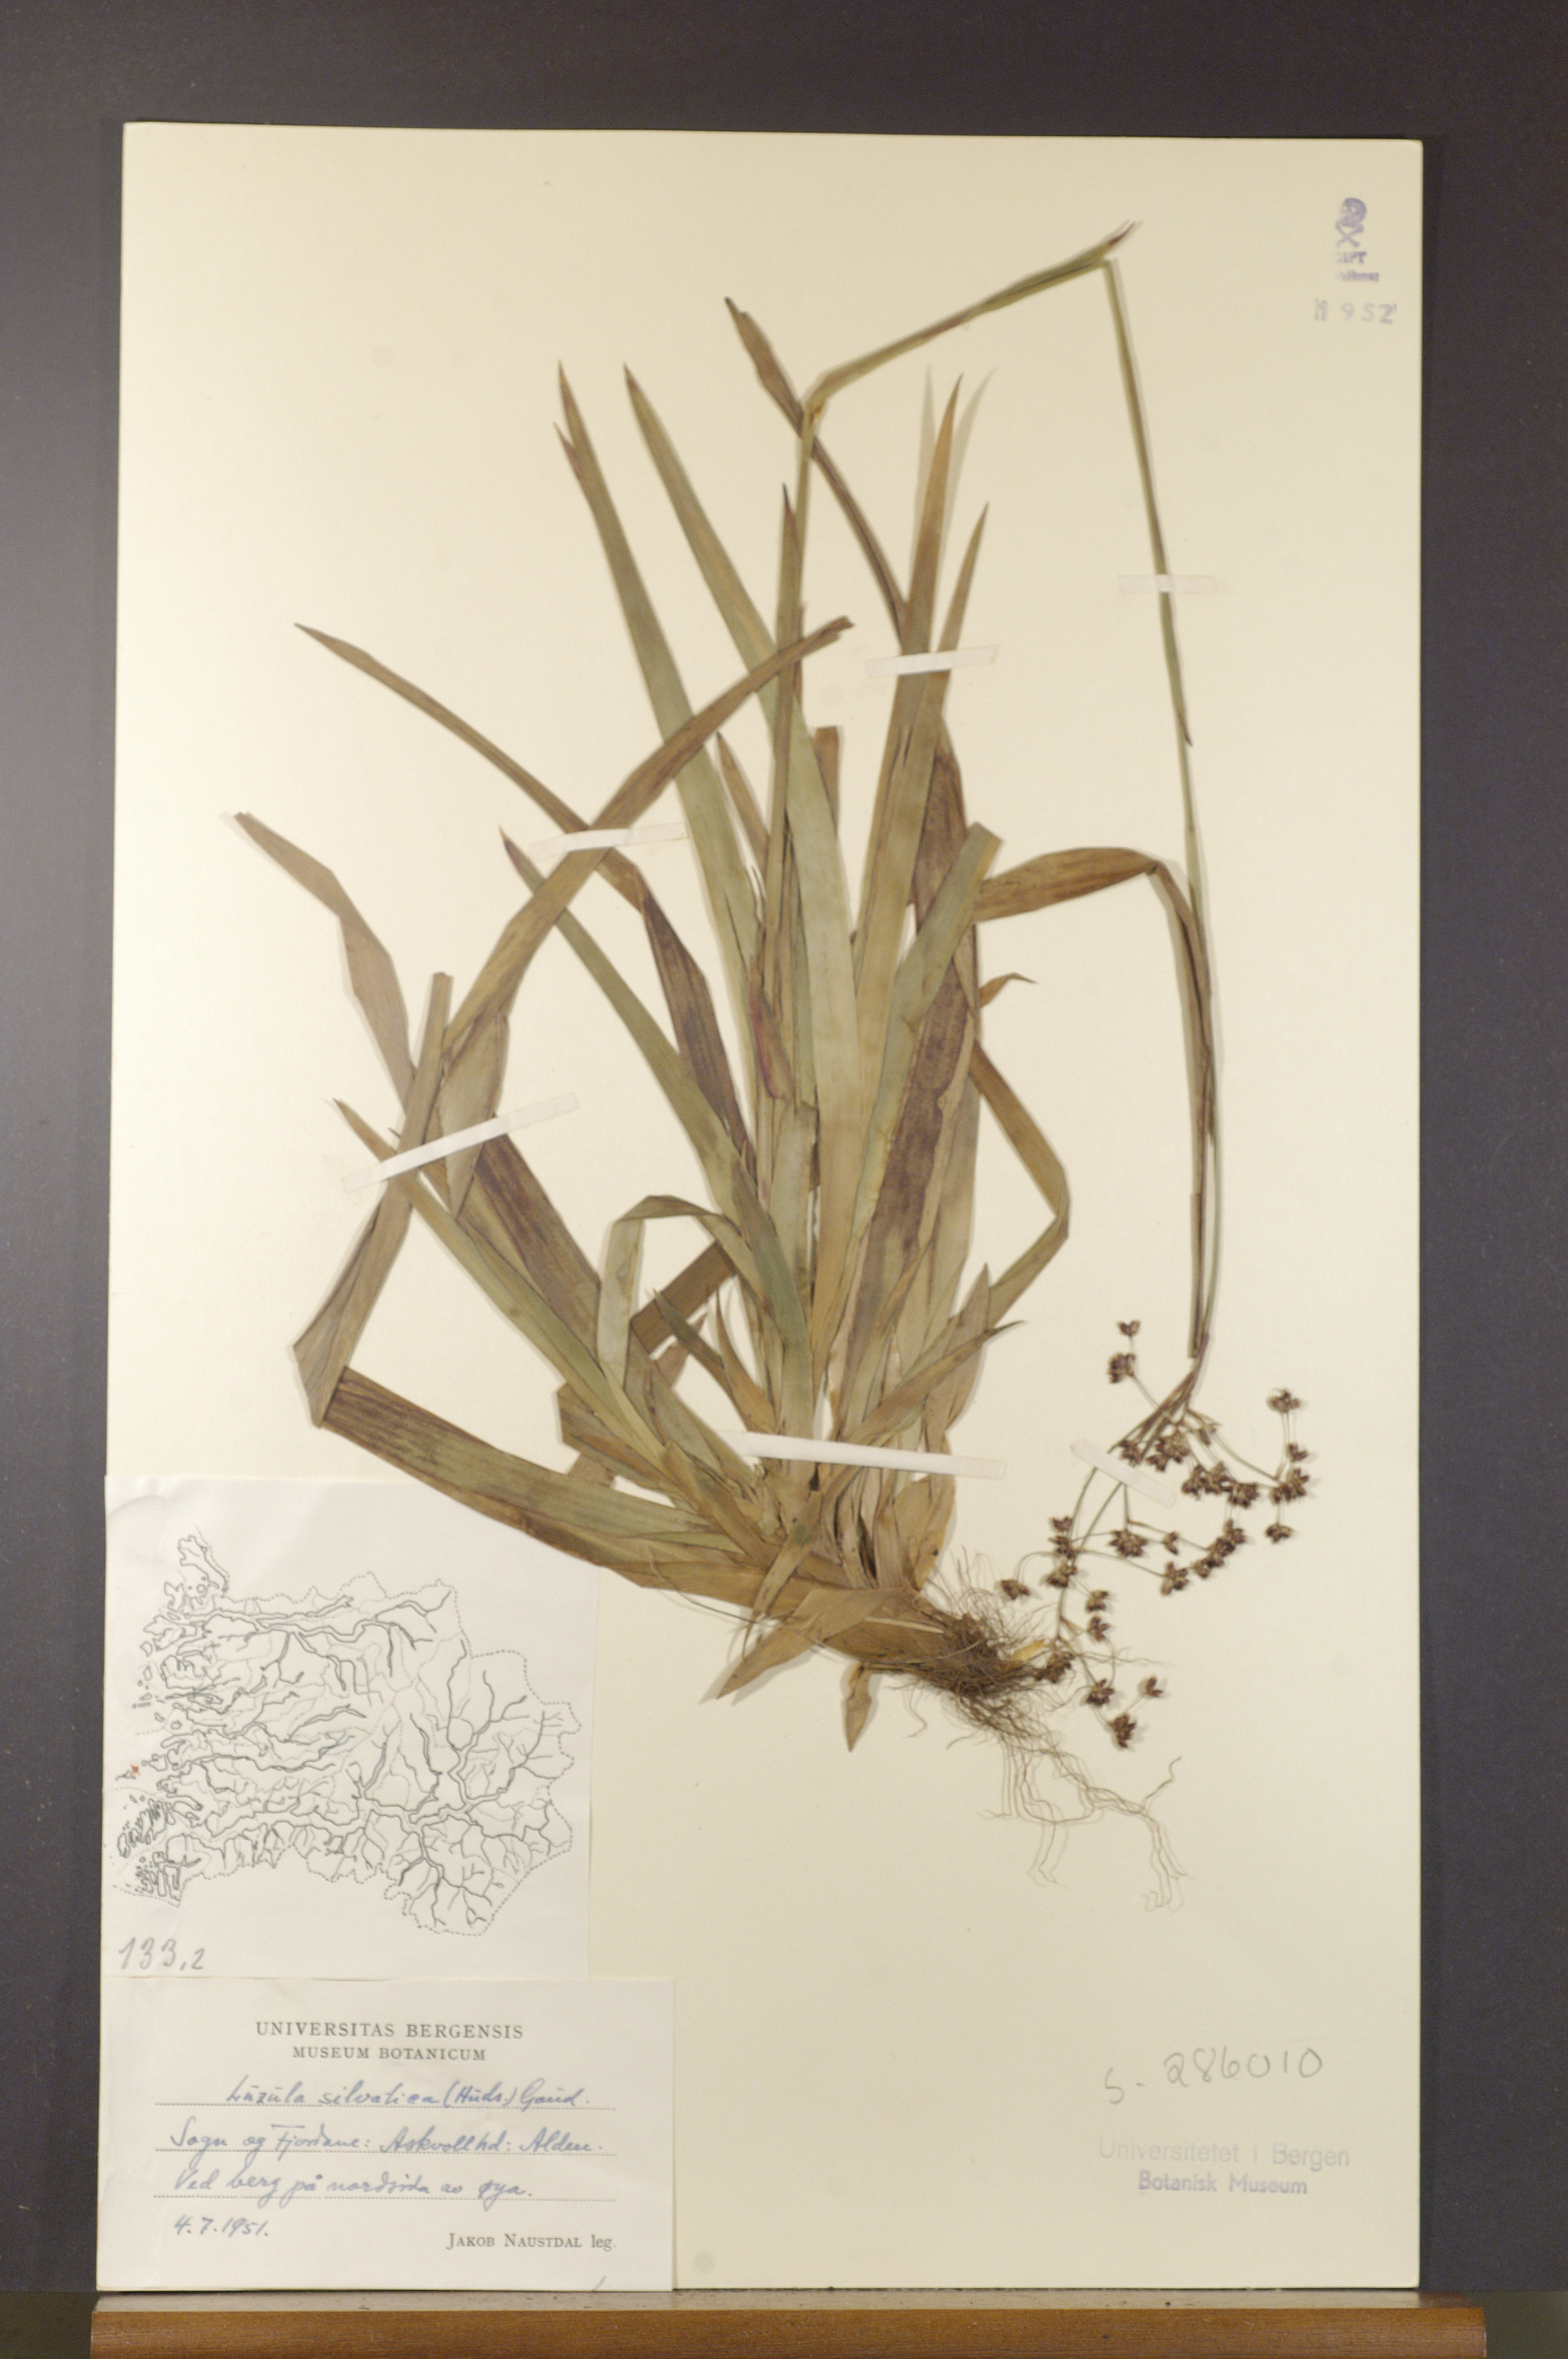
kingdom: Plantae
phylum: Tracheophyta
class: Liliopsida
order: Poales
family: Juncaceae
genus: Luzula
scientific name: Luzula sylvatica
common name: Great wood-rush
